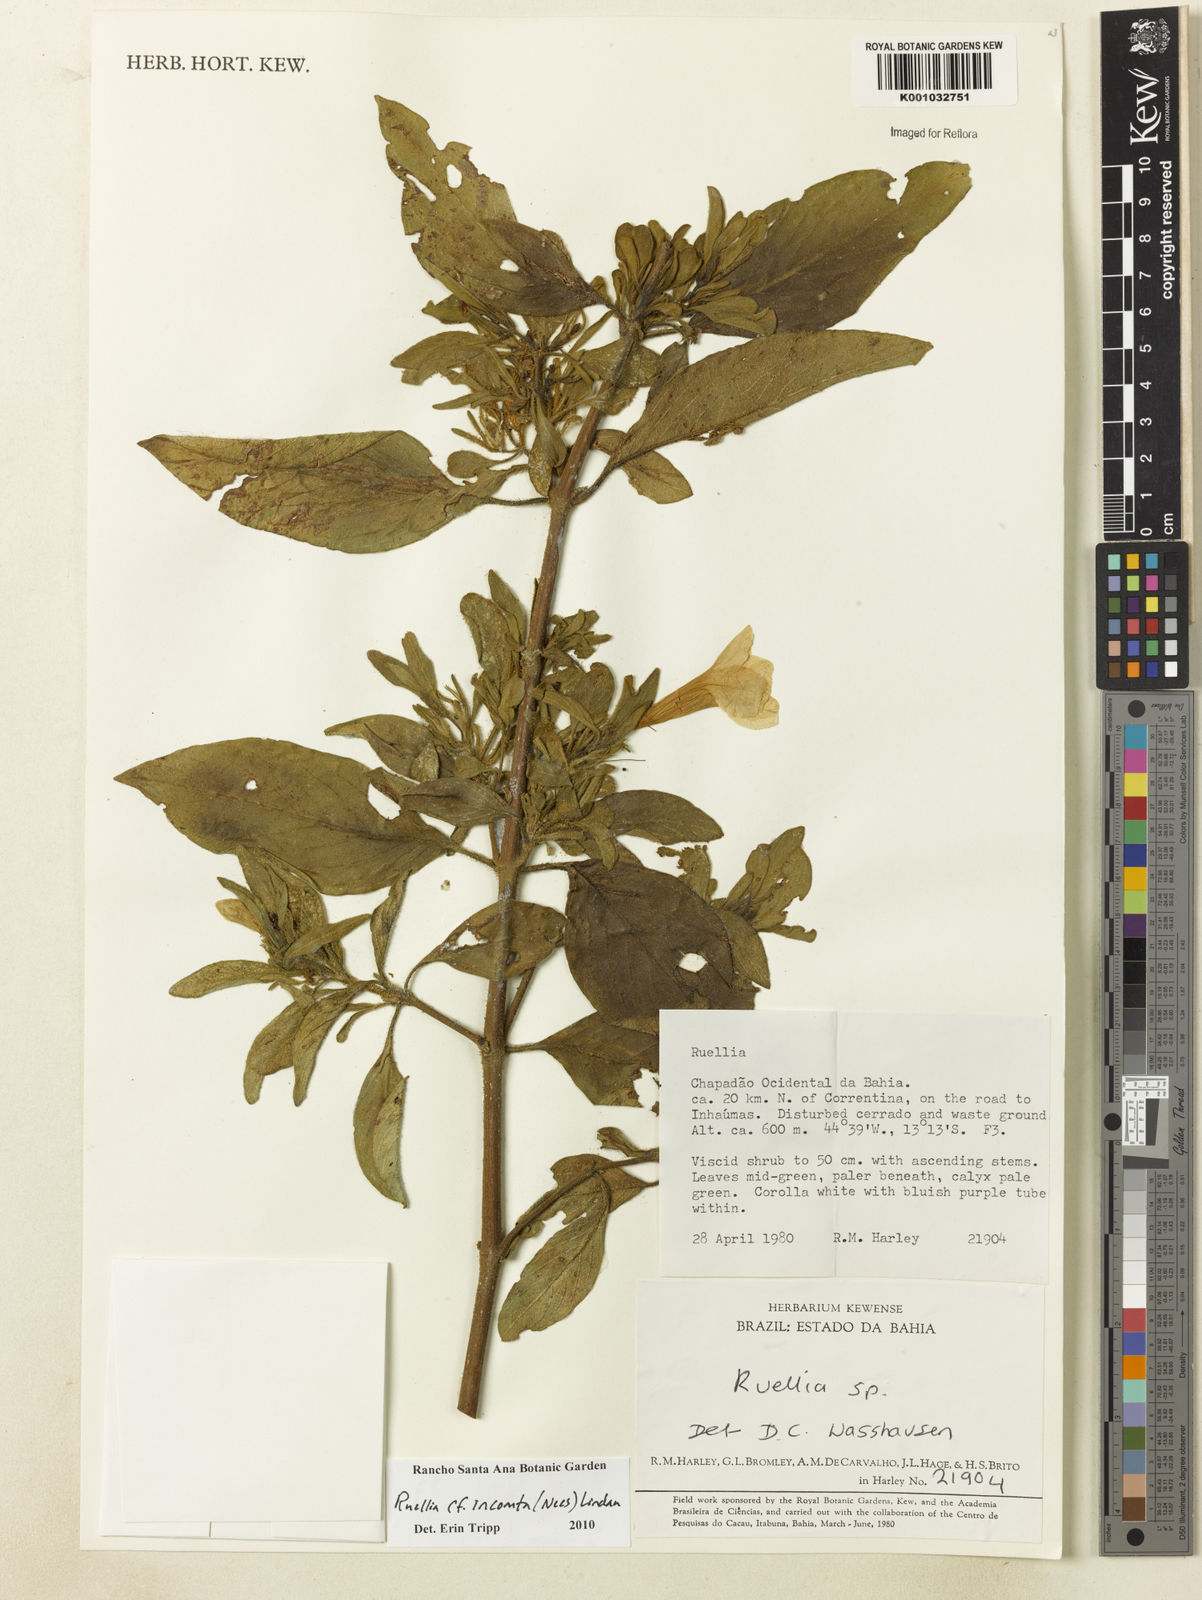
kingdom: Plantae
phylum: Tracheophyta
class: Magnoliopsida
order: Lamiales
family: Acanthaceae
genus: Ruellia
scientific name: Ruellia
